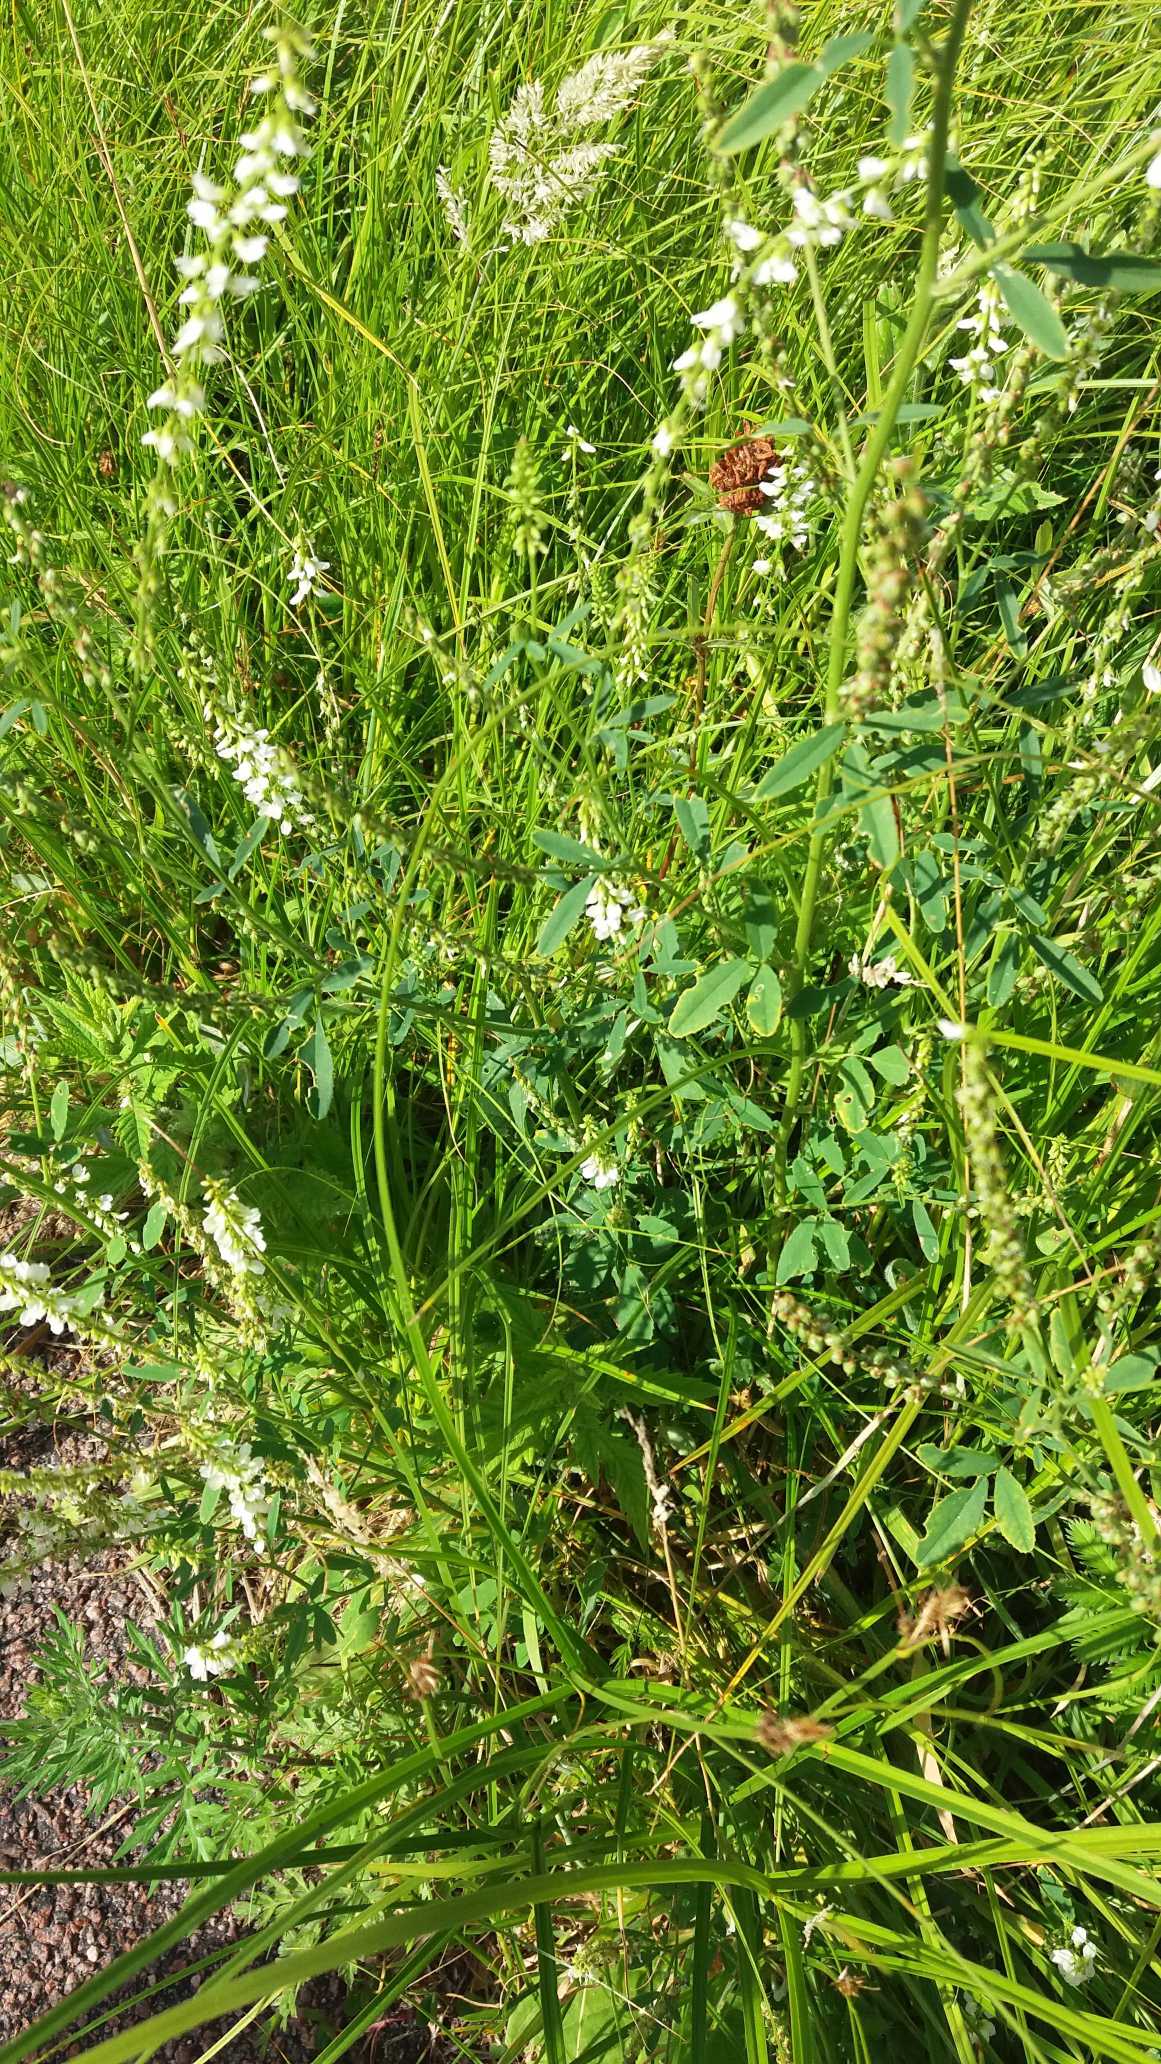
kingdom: Plantae
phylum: Tracheophyta
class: Magnoliopsida
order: Fabales
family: Fabaceae
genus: Melilotus
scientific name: Melilotus albus
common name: Hvid stenkløver
